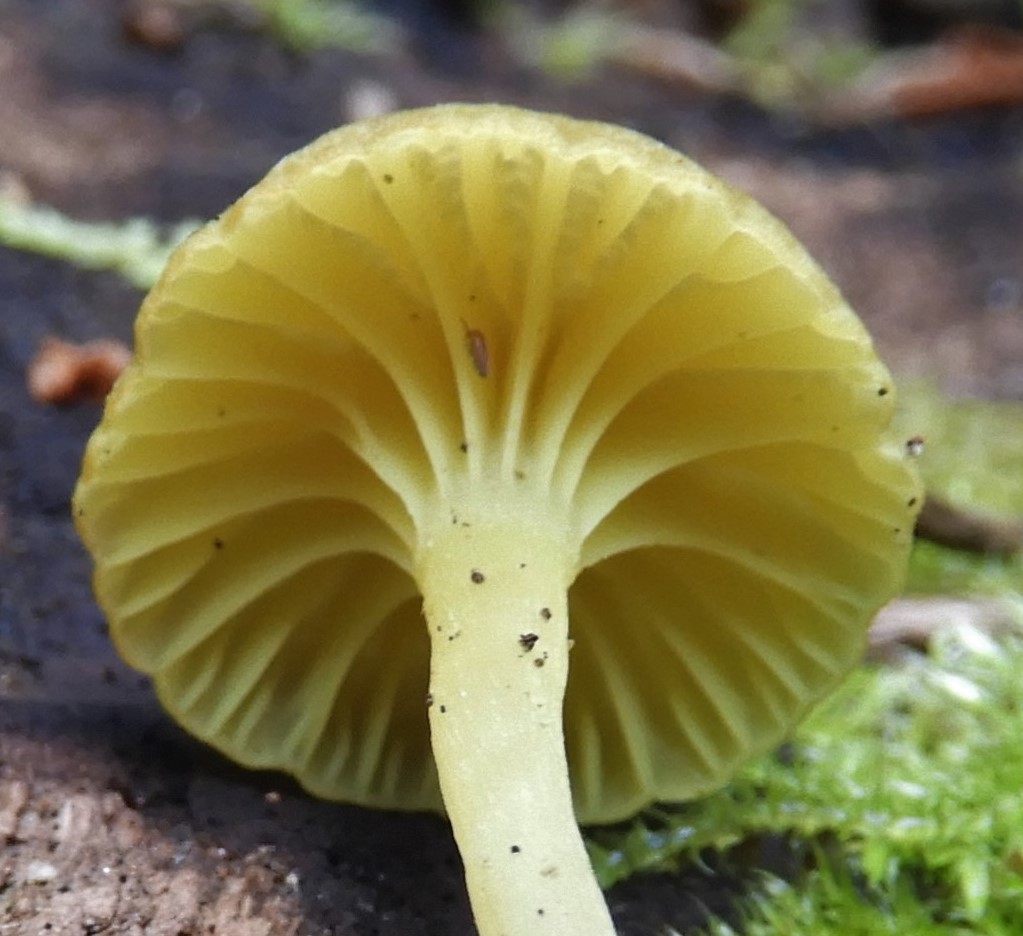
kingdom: Fungi
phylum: Basidiomycota
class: Agaricomycetes
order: Agaricales
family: Hygrophoraceae
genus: Chrysomphalina
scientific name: Chrysomphalina grossula
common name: stød-gyldenblad
